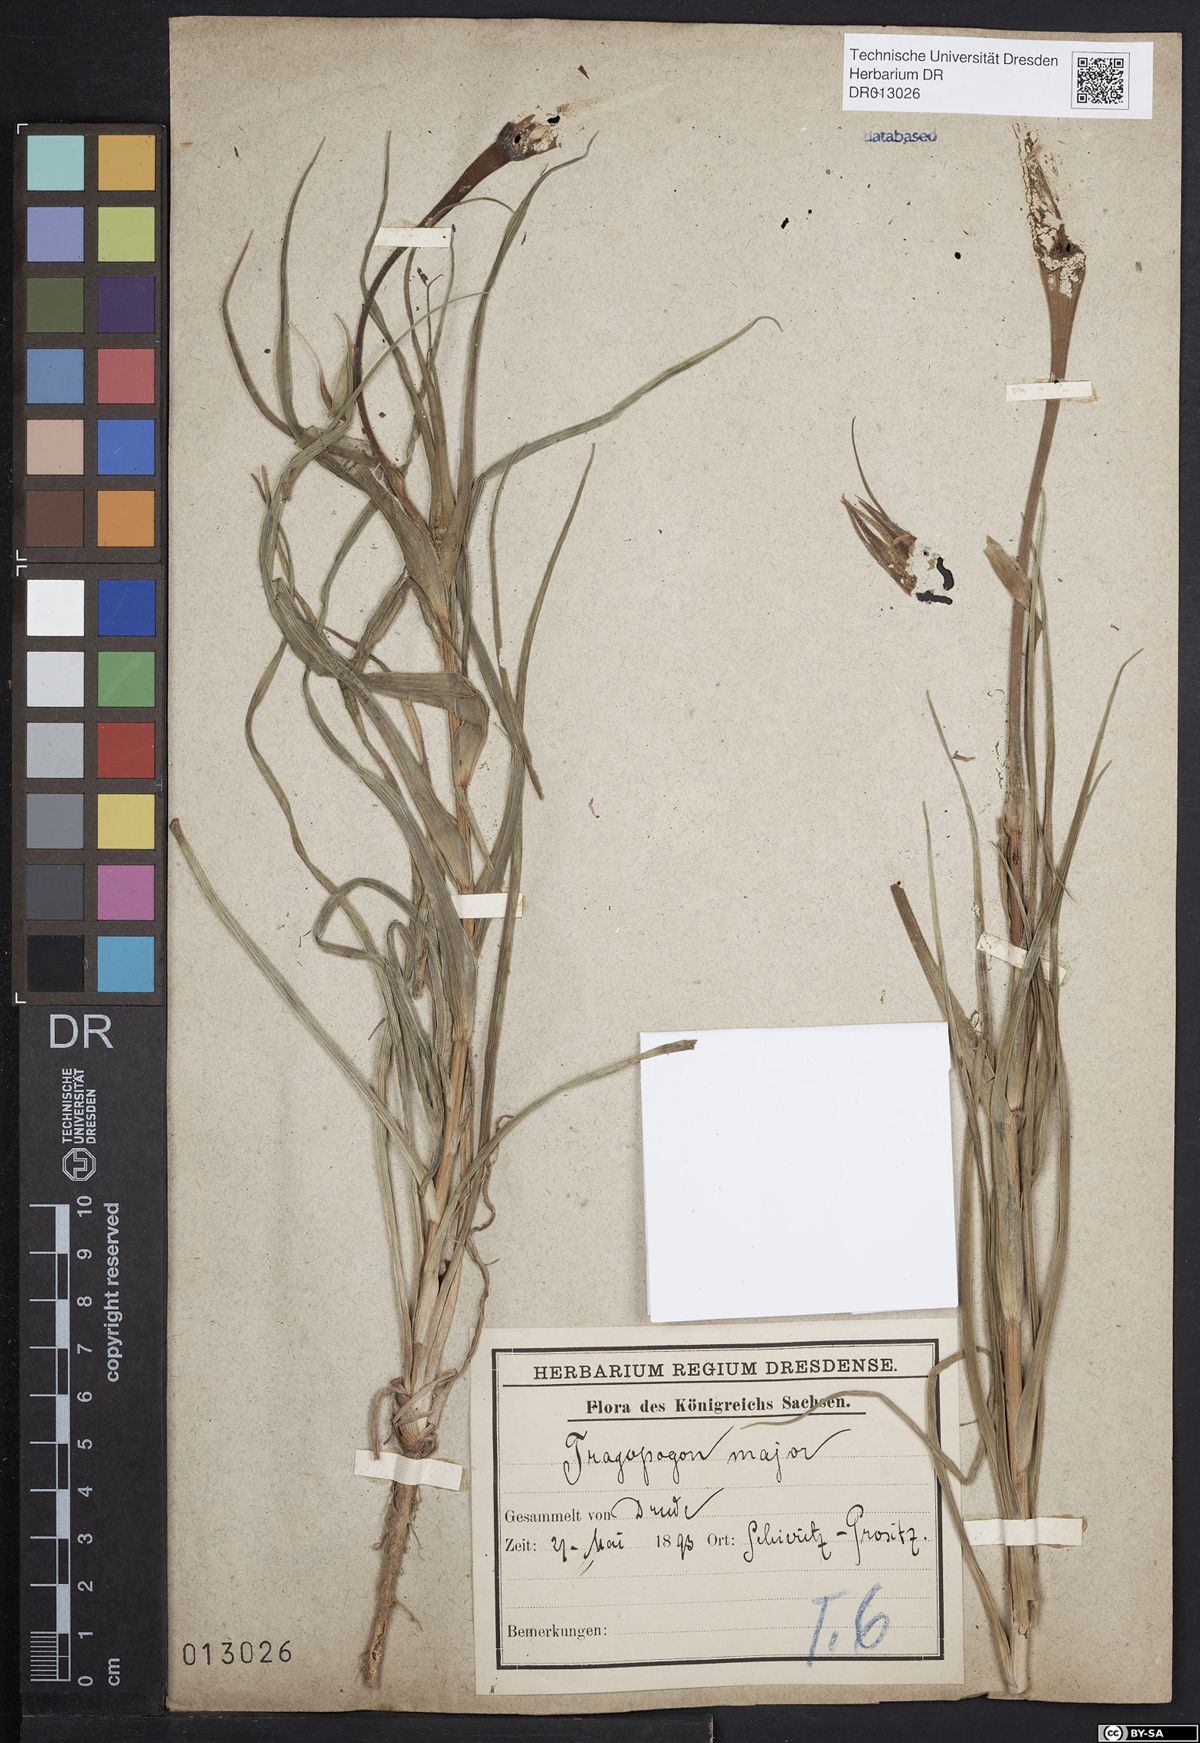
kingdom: Plantae
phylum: Tracheophyta
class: Magnoliopsida
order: Asterales
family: Asteraceae
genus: Tragopogon
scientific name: Tragopogon dubius
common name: Yellow salsify
